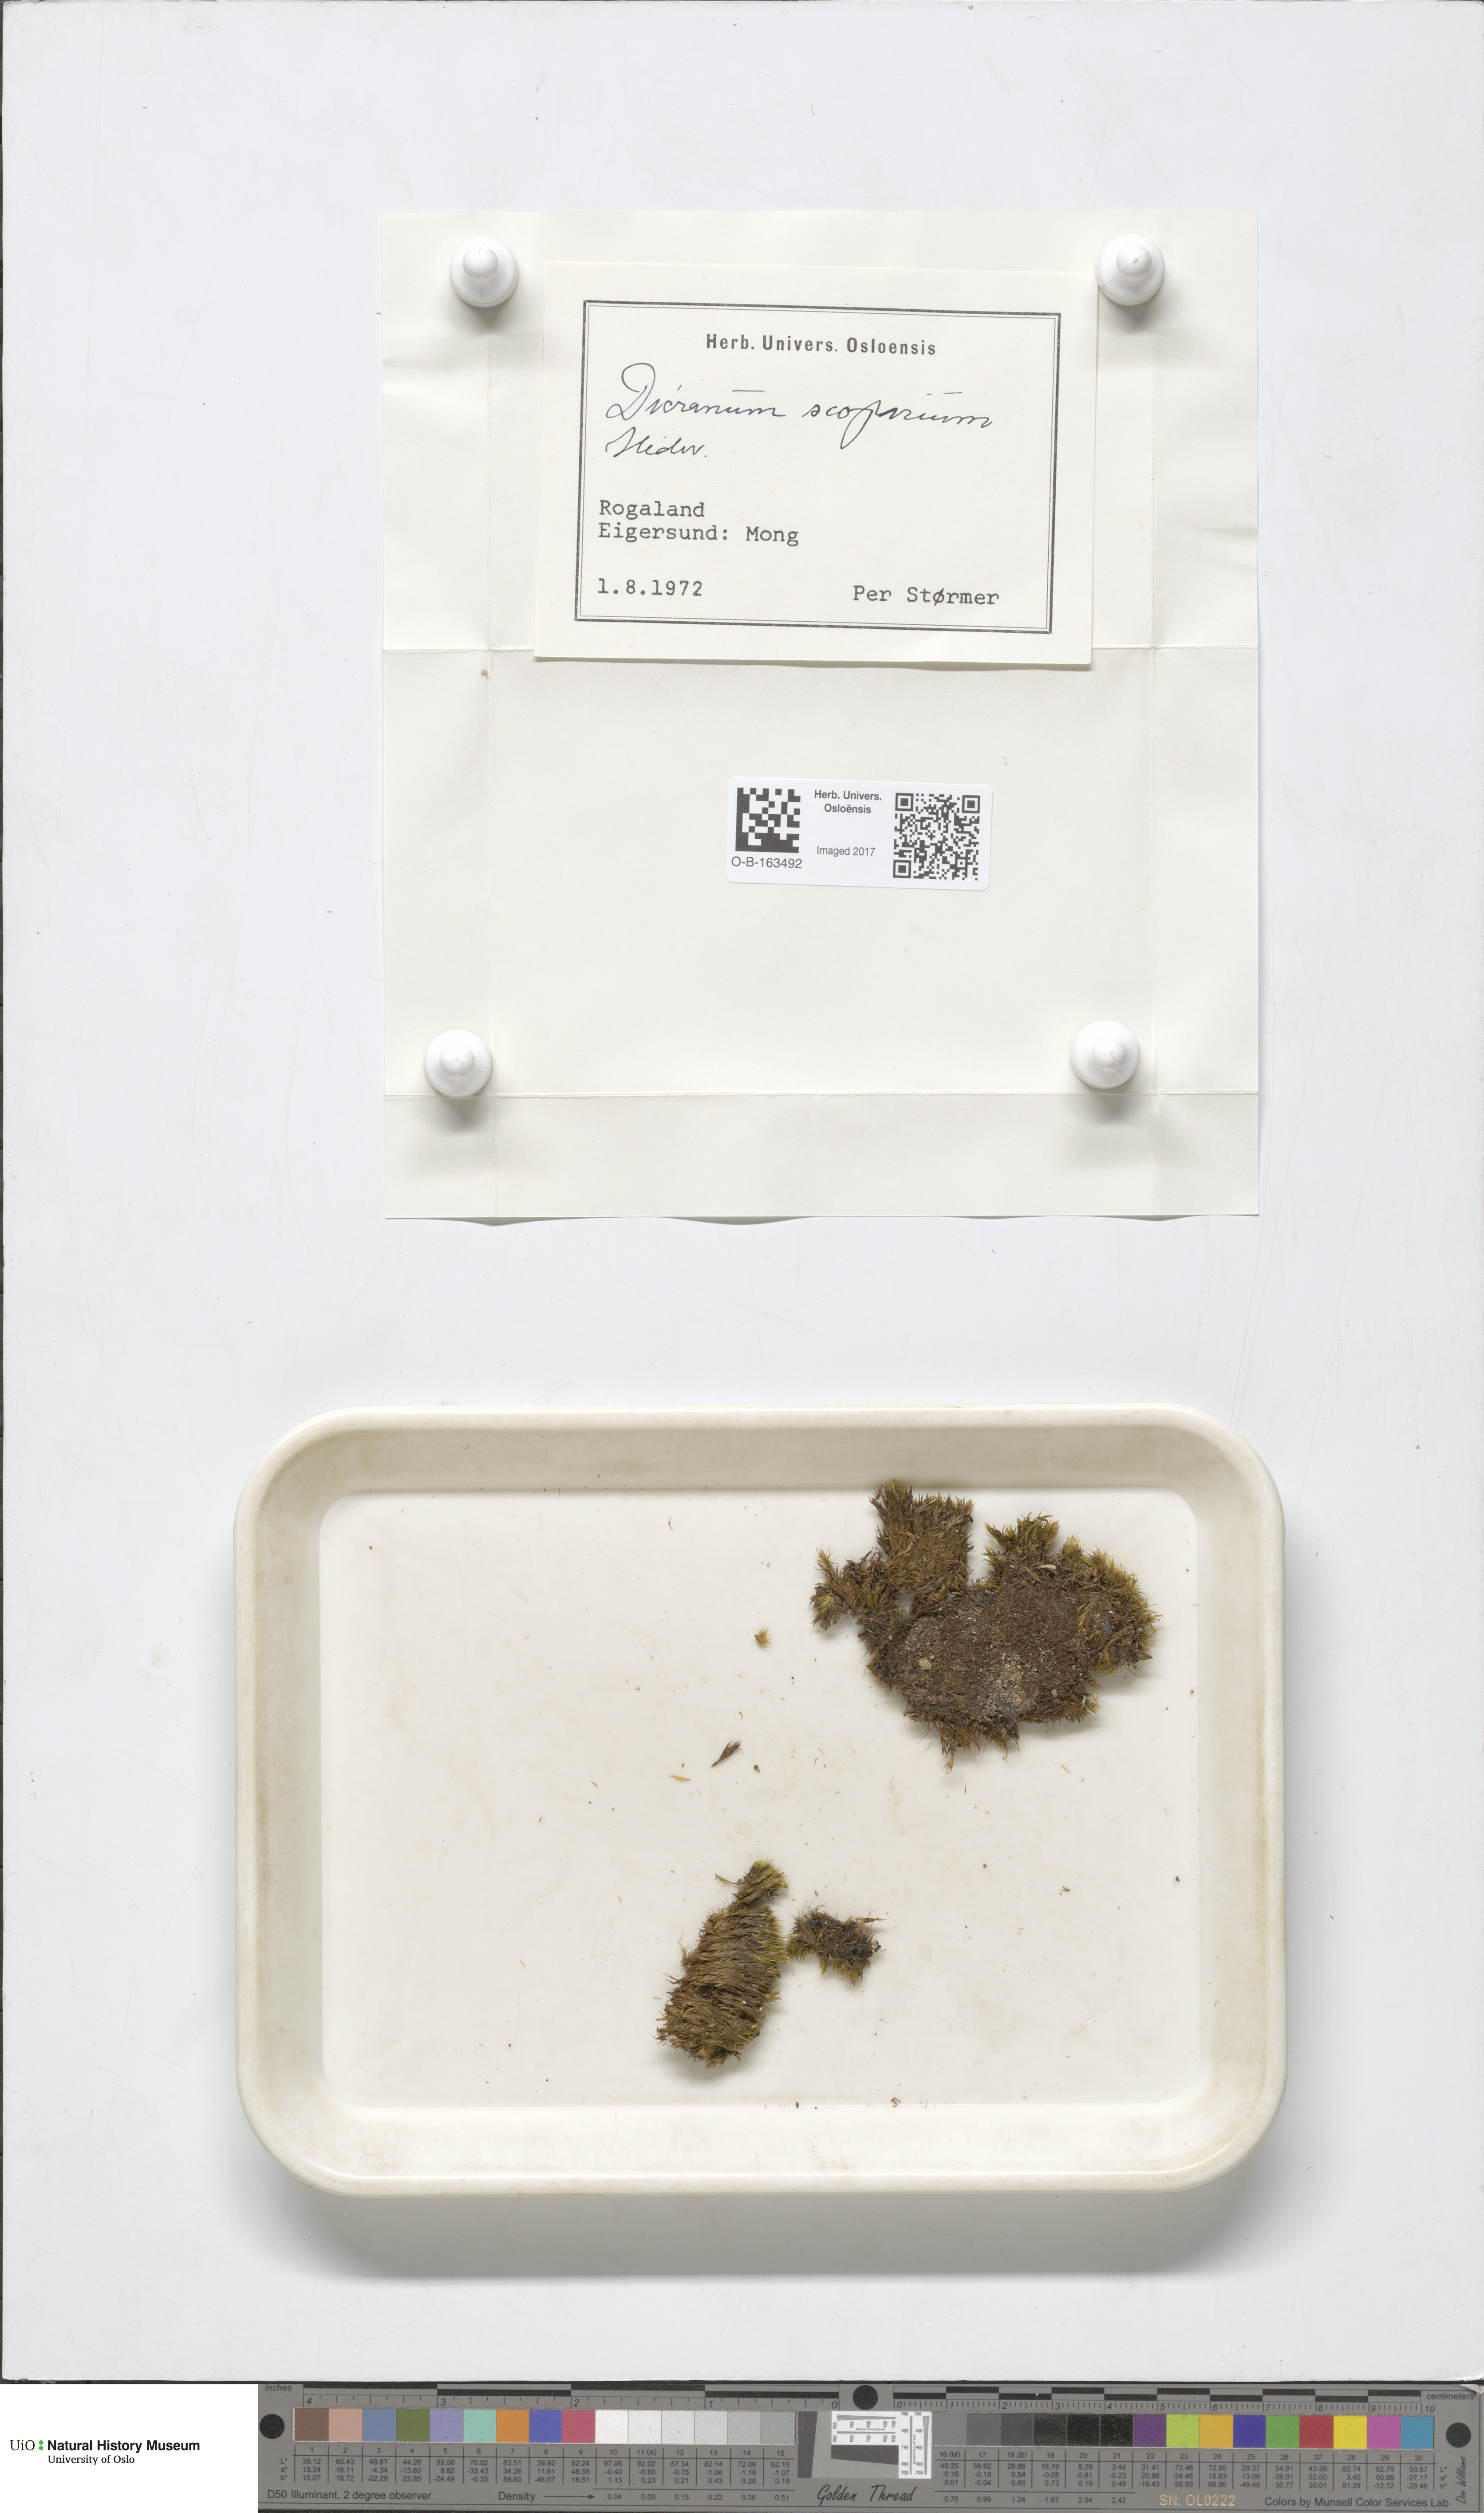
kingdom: Plantae
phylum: Bryophyta
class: Bryopsida
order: Dicranales
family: Dicranaceae
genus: Dicranum
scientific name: Dicranum scoparium
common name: Broom fork-moss
